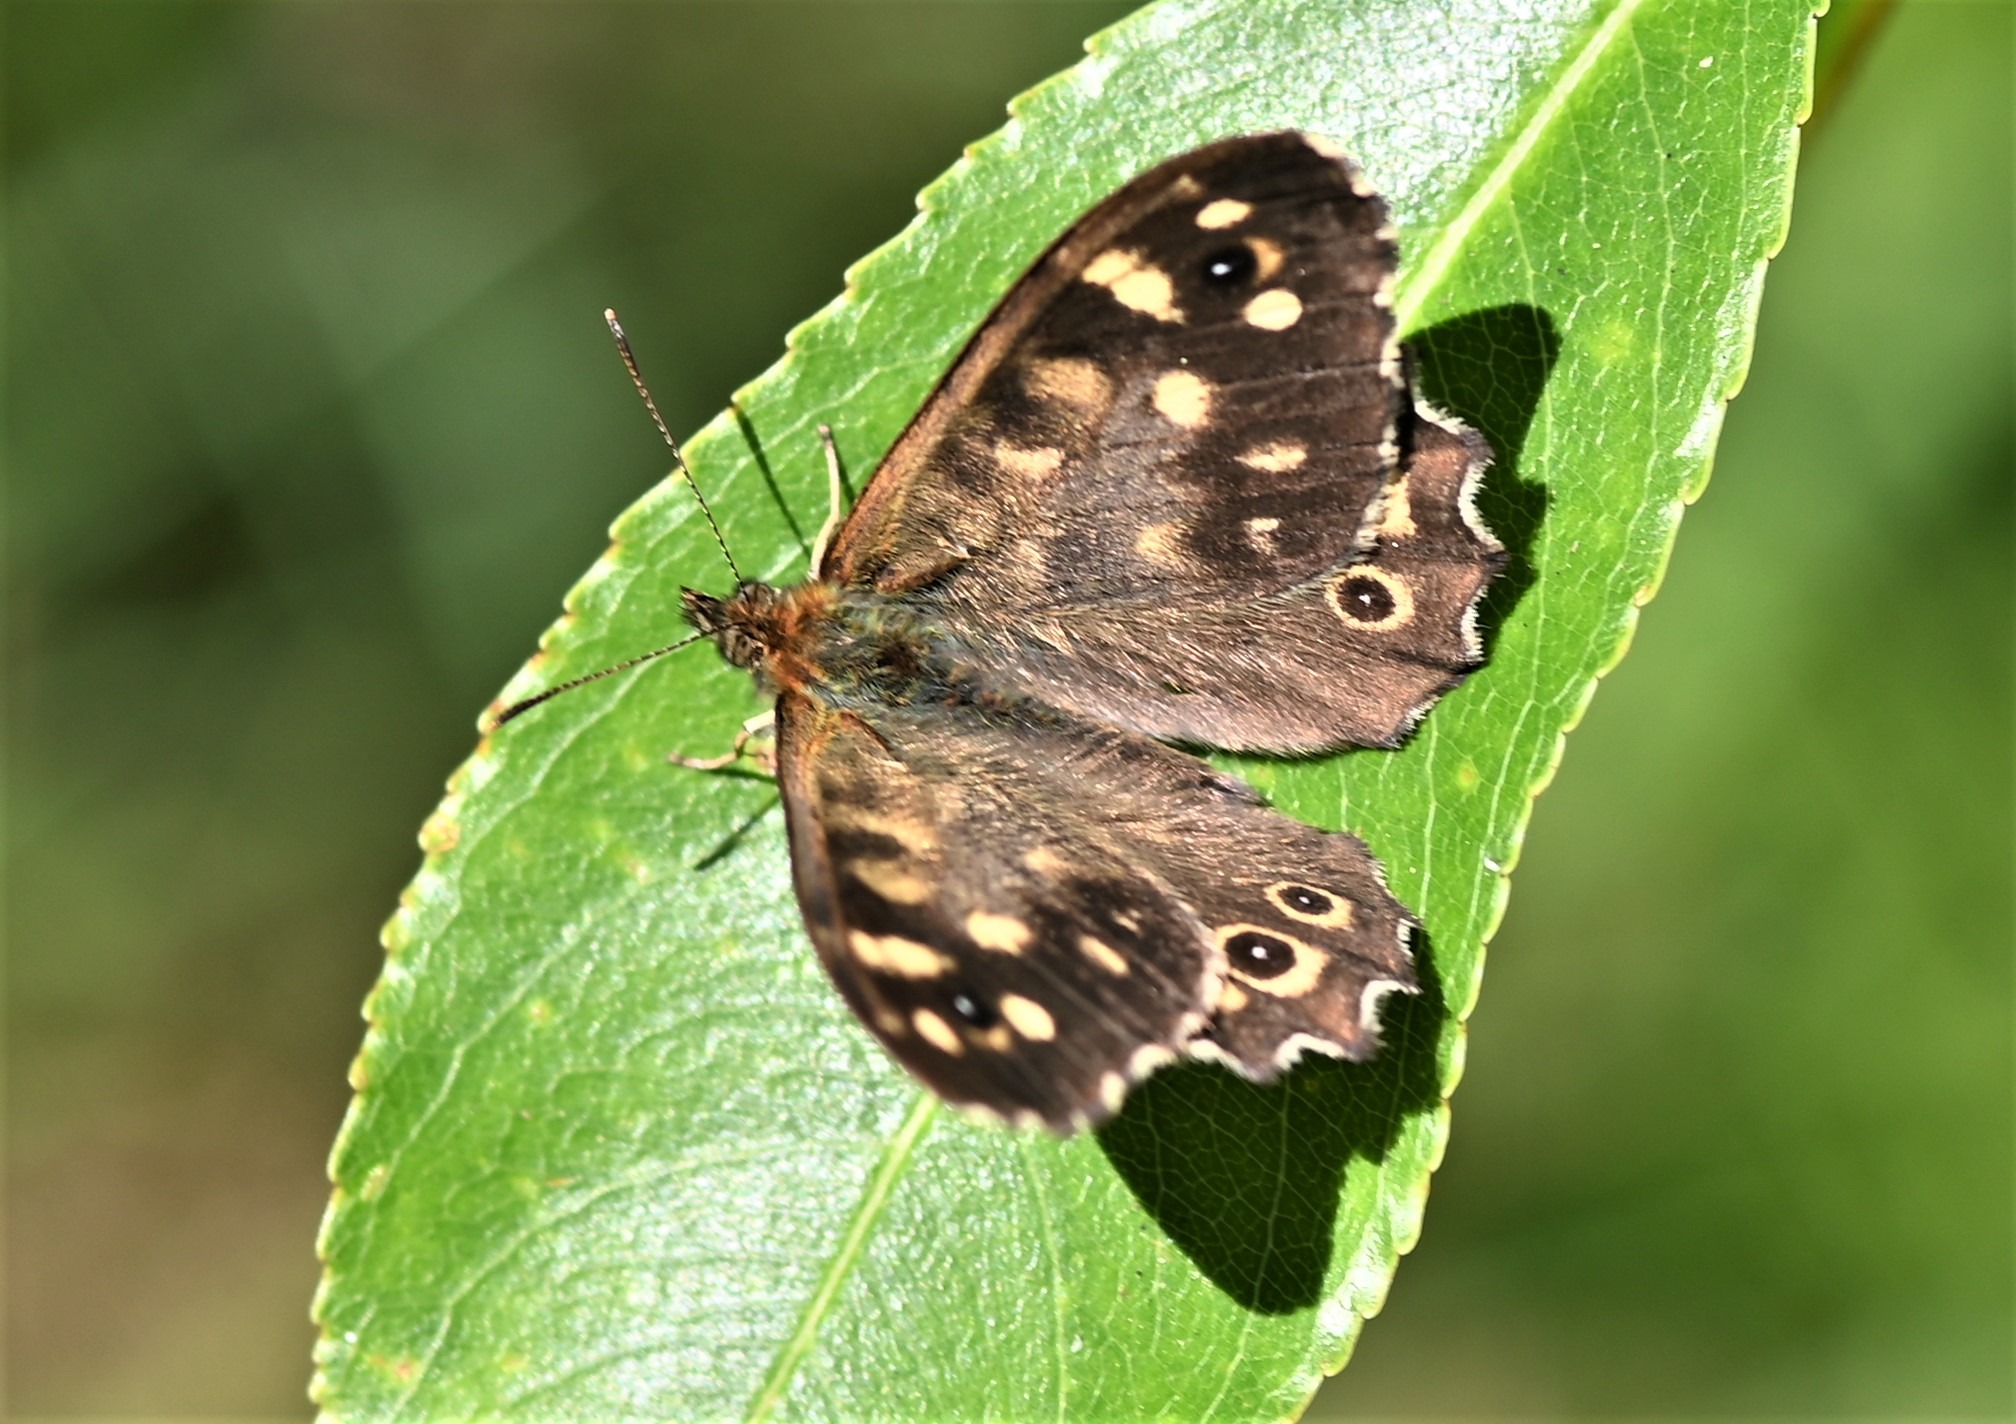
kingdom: Animalia
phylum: Arthropoda
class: Insecta
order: Lepidoptera
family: Nymphalidae
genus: Pararge
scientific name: Pararge aegeria
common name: Skovrandøje
